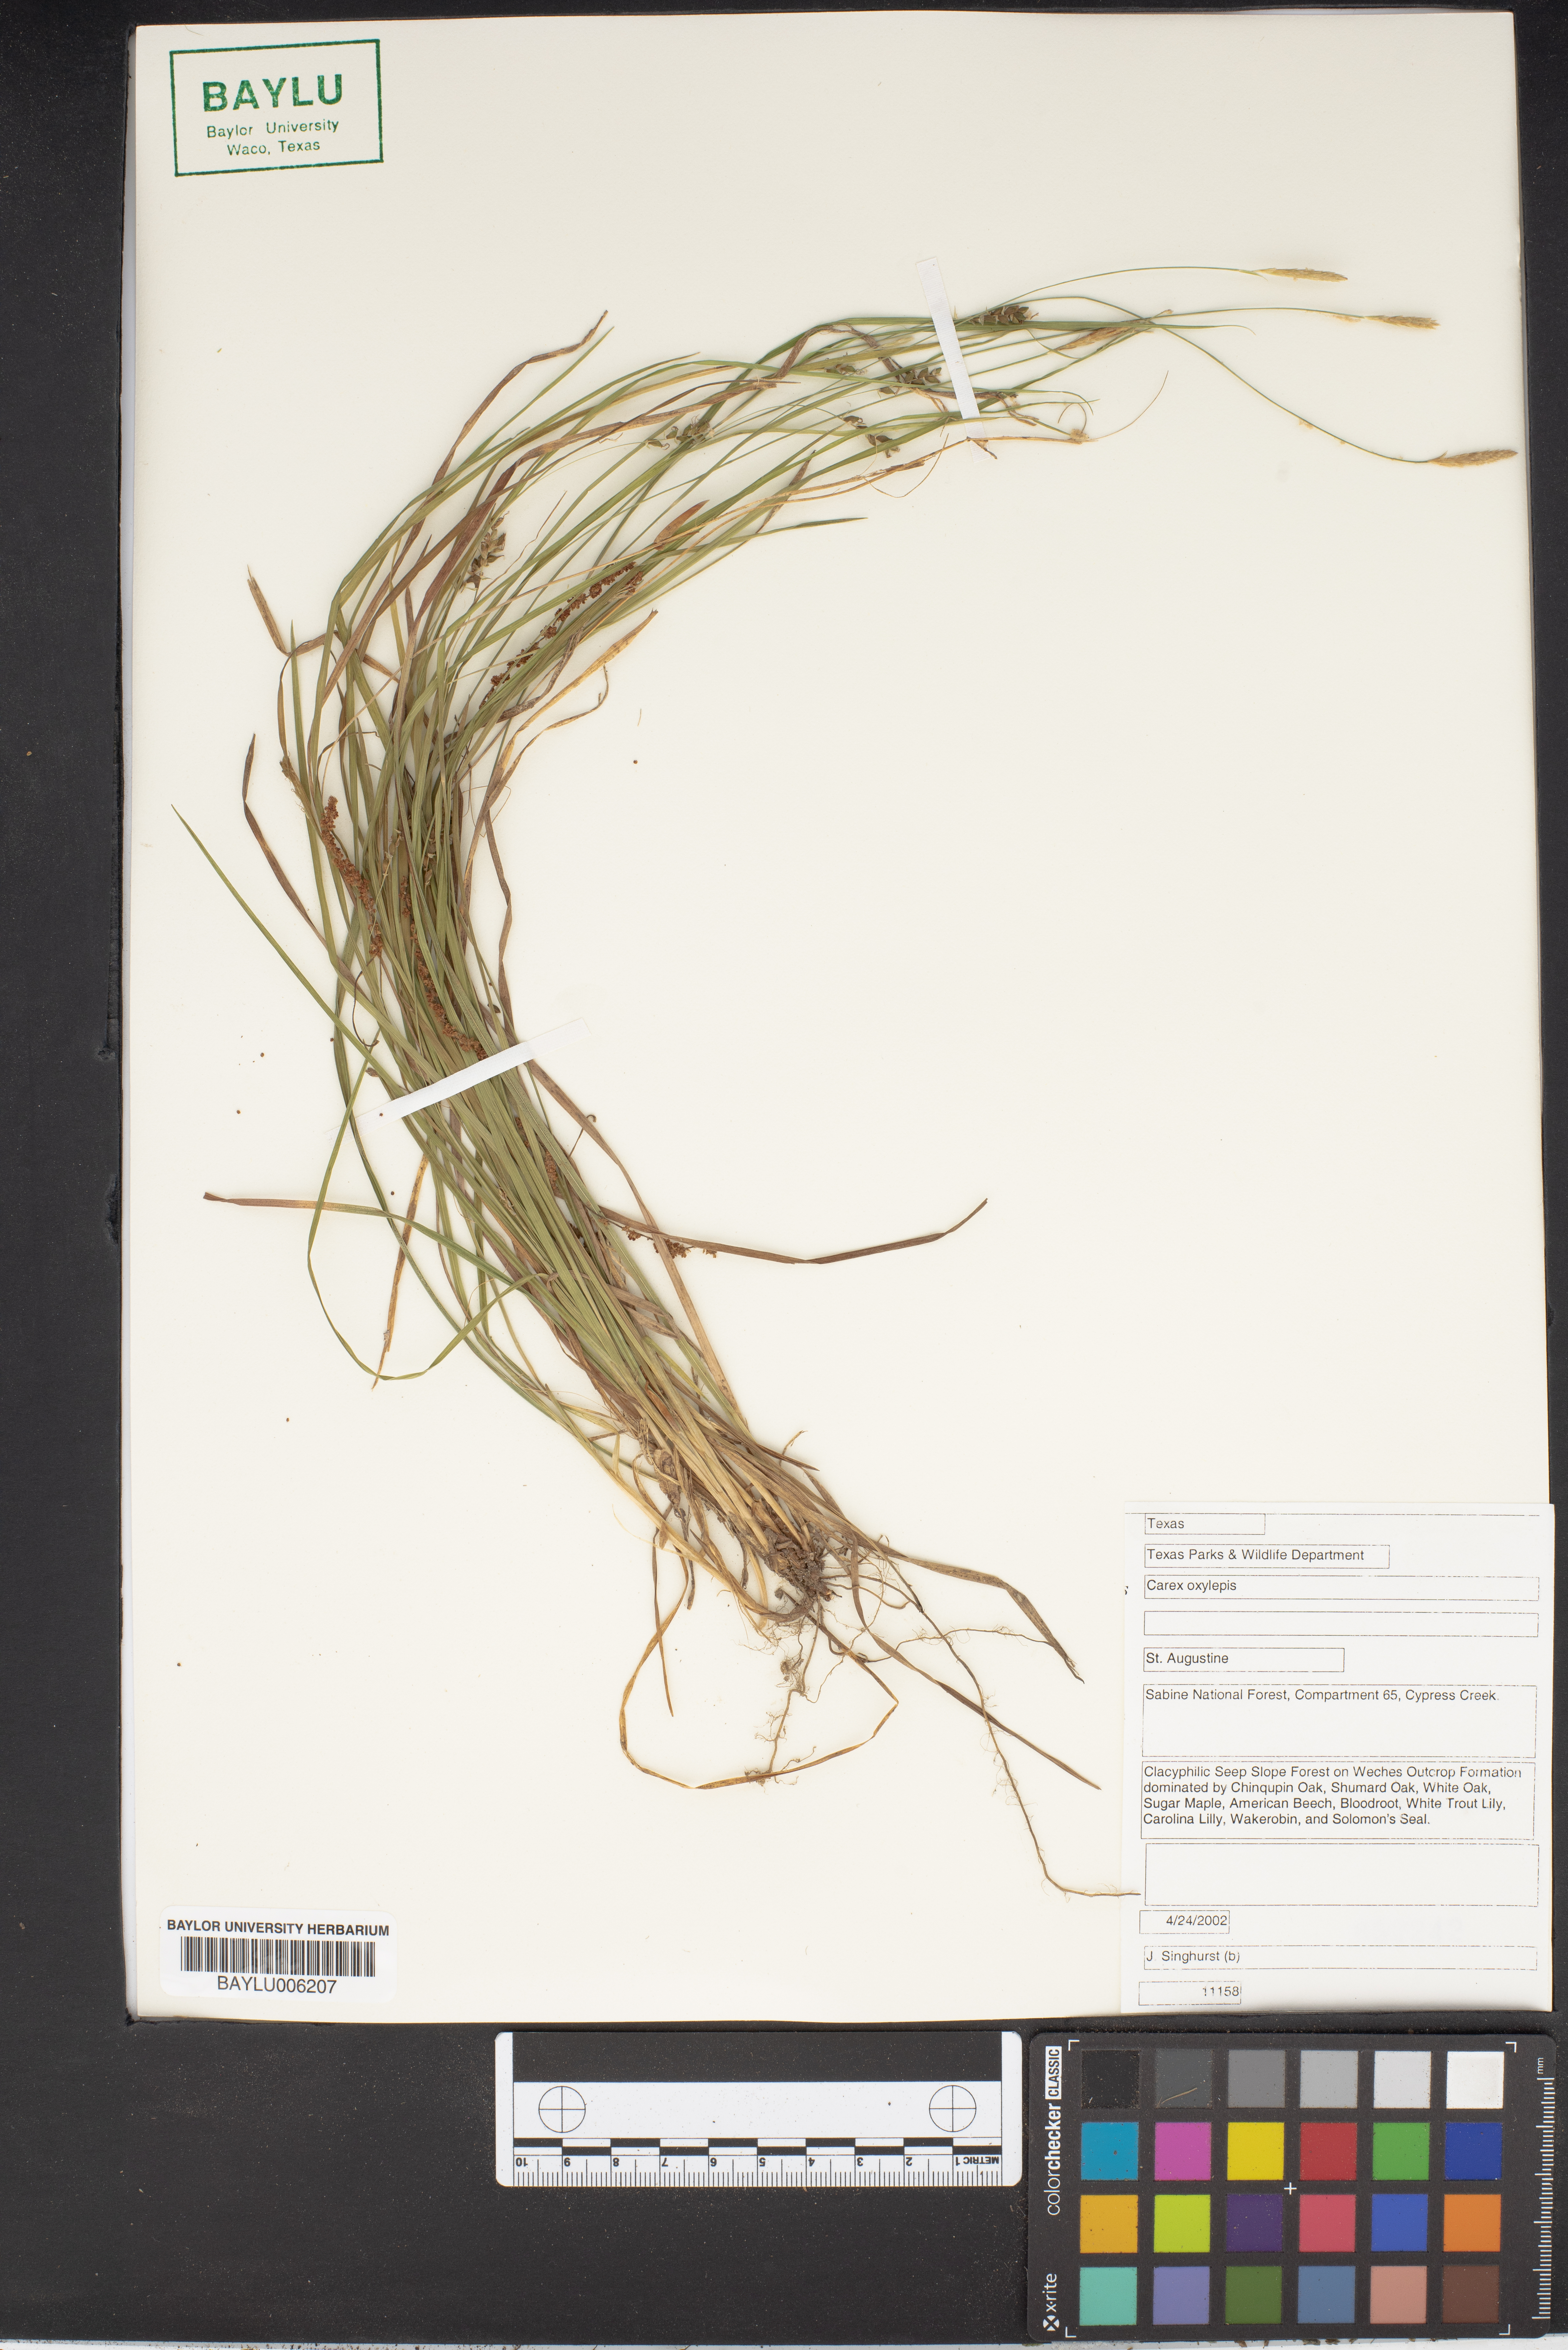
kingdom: Plantae
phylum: Tracheophyta
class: Liliopsida
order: Poales
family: Cyperaceae
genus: Carex
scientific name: Carex oxylepis
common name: Sharpscale sedge
